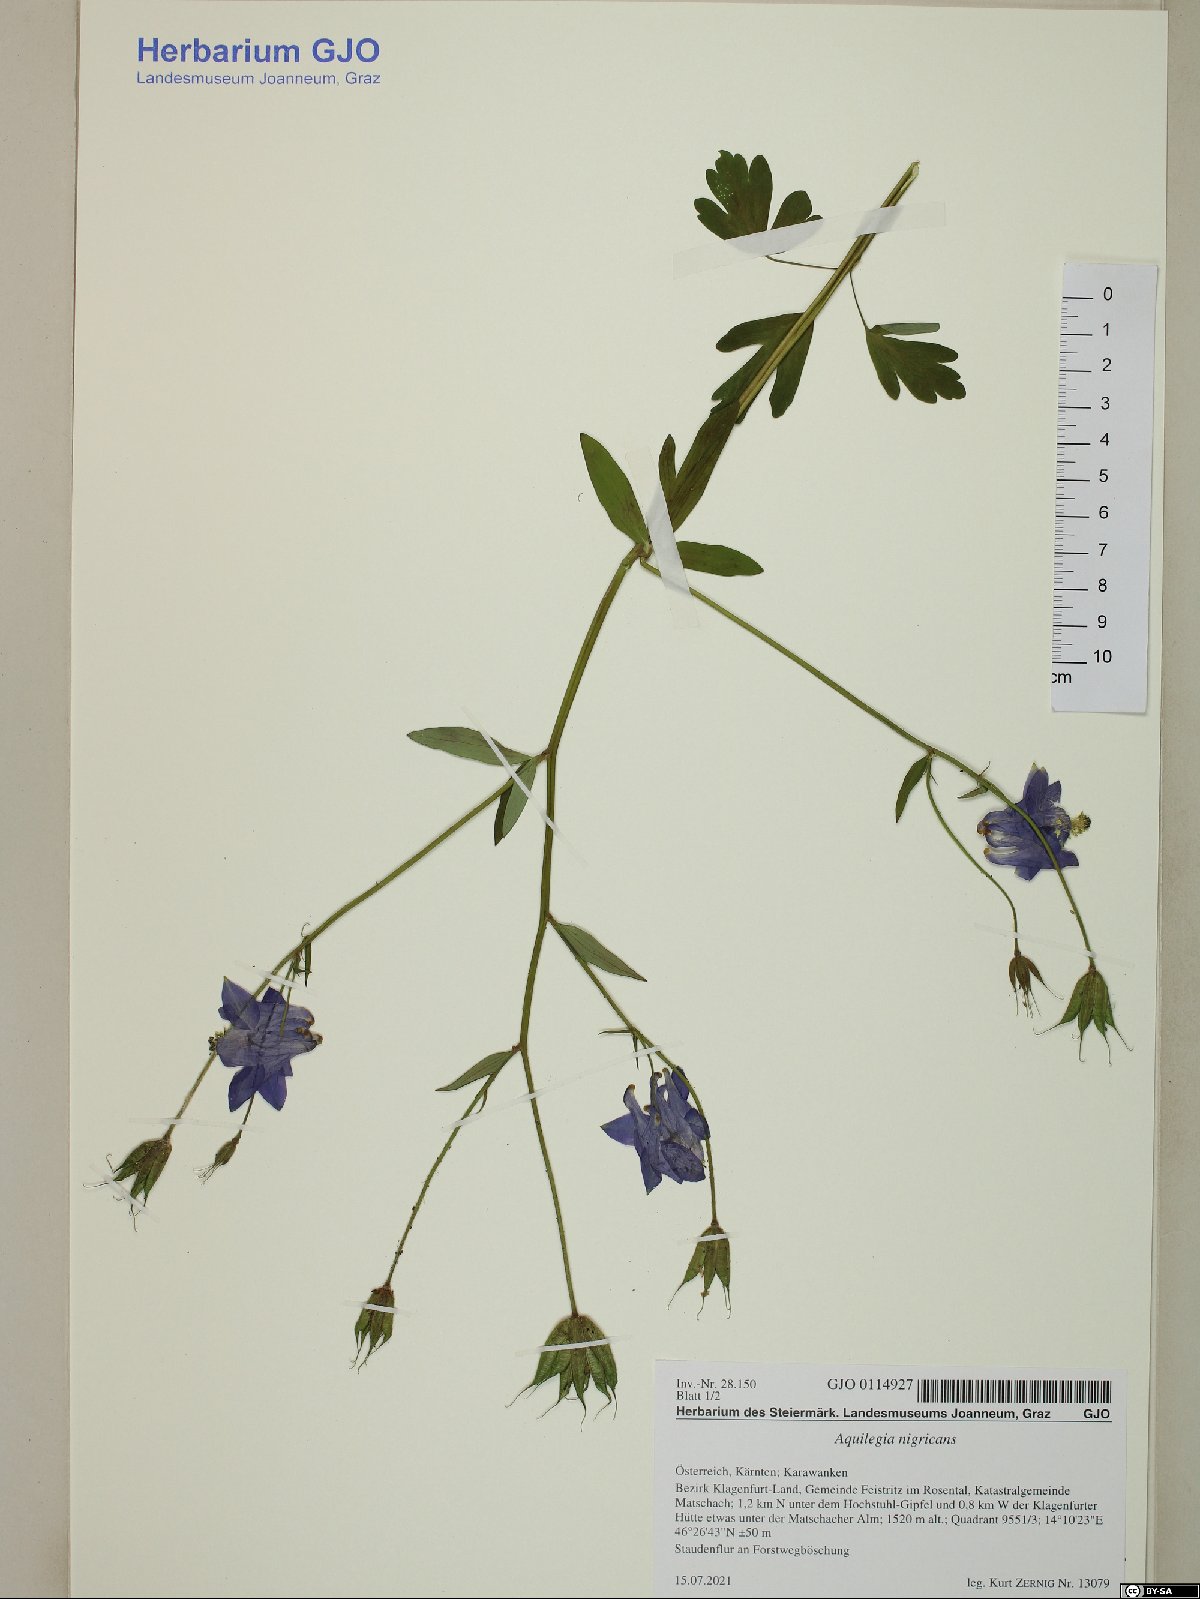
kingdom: Plantae
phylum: Tracheophyta
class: Magnoliopsida
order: Ranunculales
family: Ranunculaceae
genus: Aquilegia
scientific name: Aquilegia nigricans
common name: Bulgarian columbine
